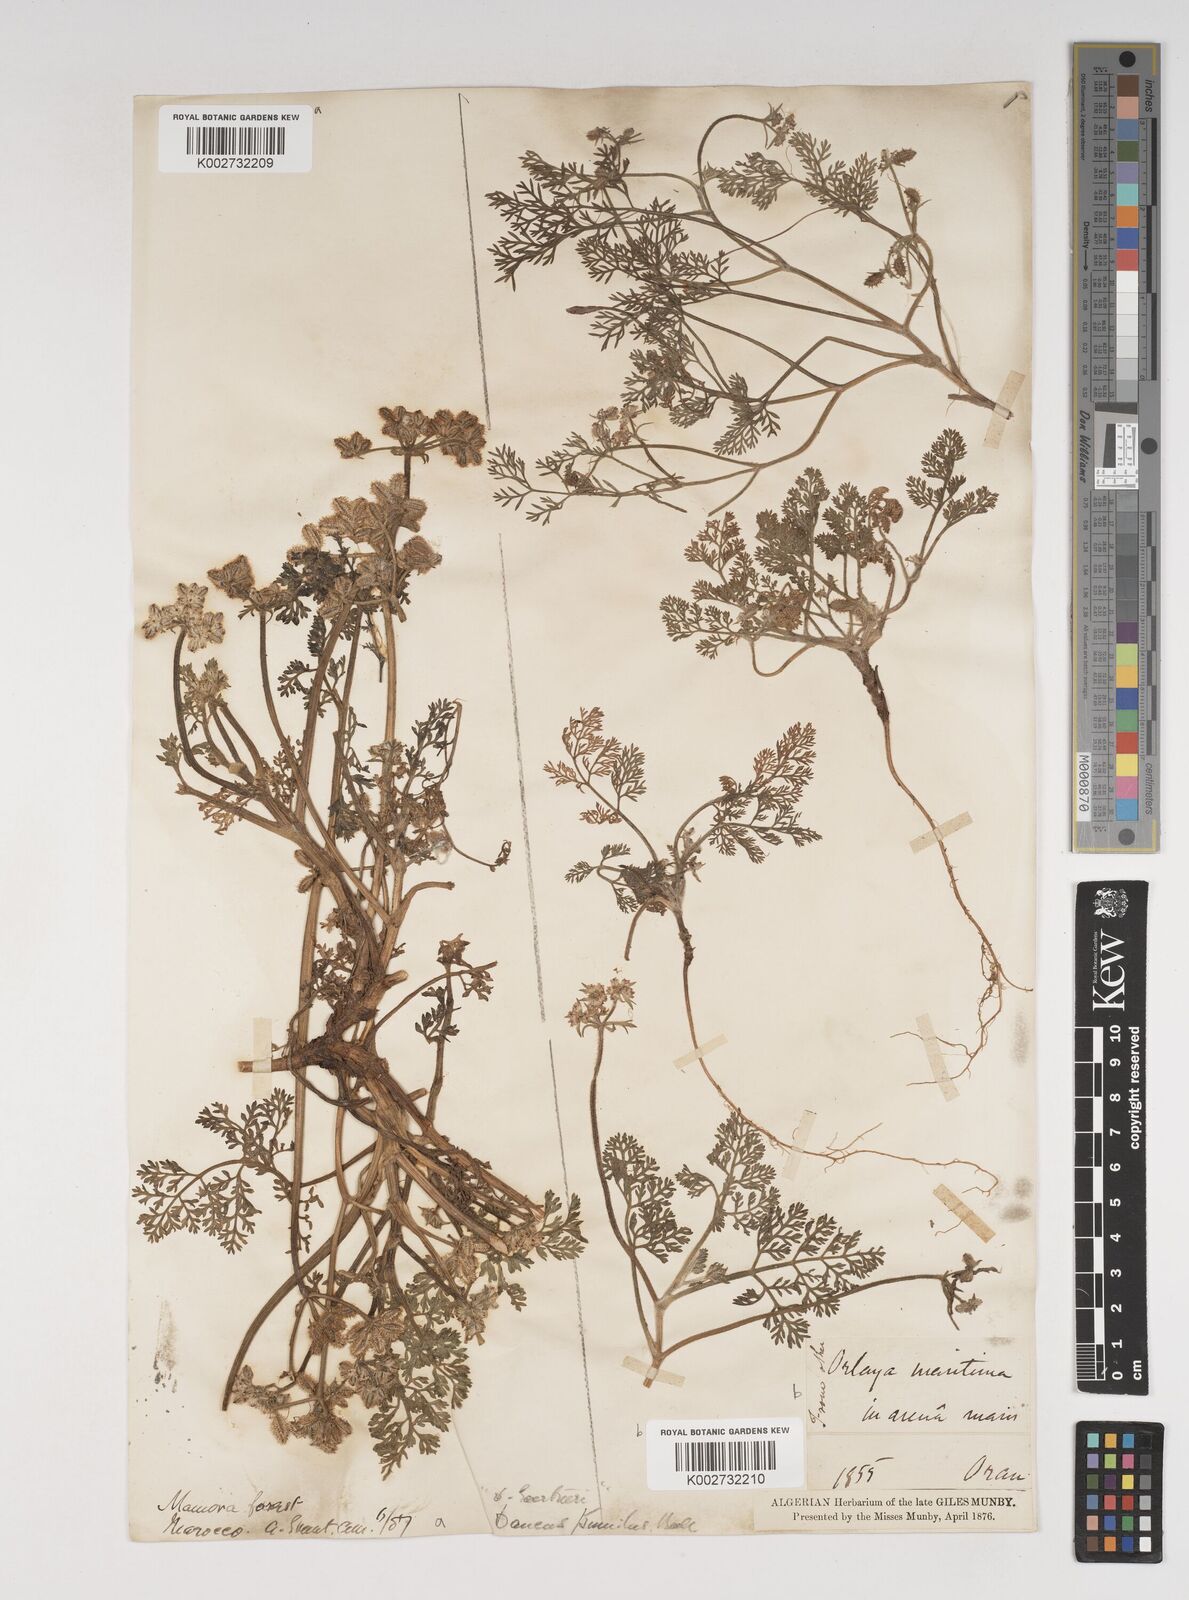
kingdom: Plantae
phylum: Tracheophyta
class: Magnoliopsida
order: Apiales
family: Apiaceae
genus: Daucus
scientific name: Daucus pumilus
